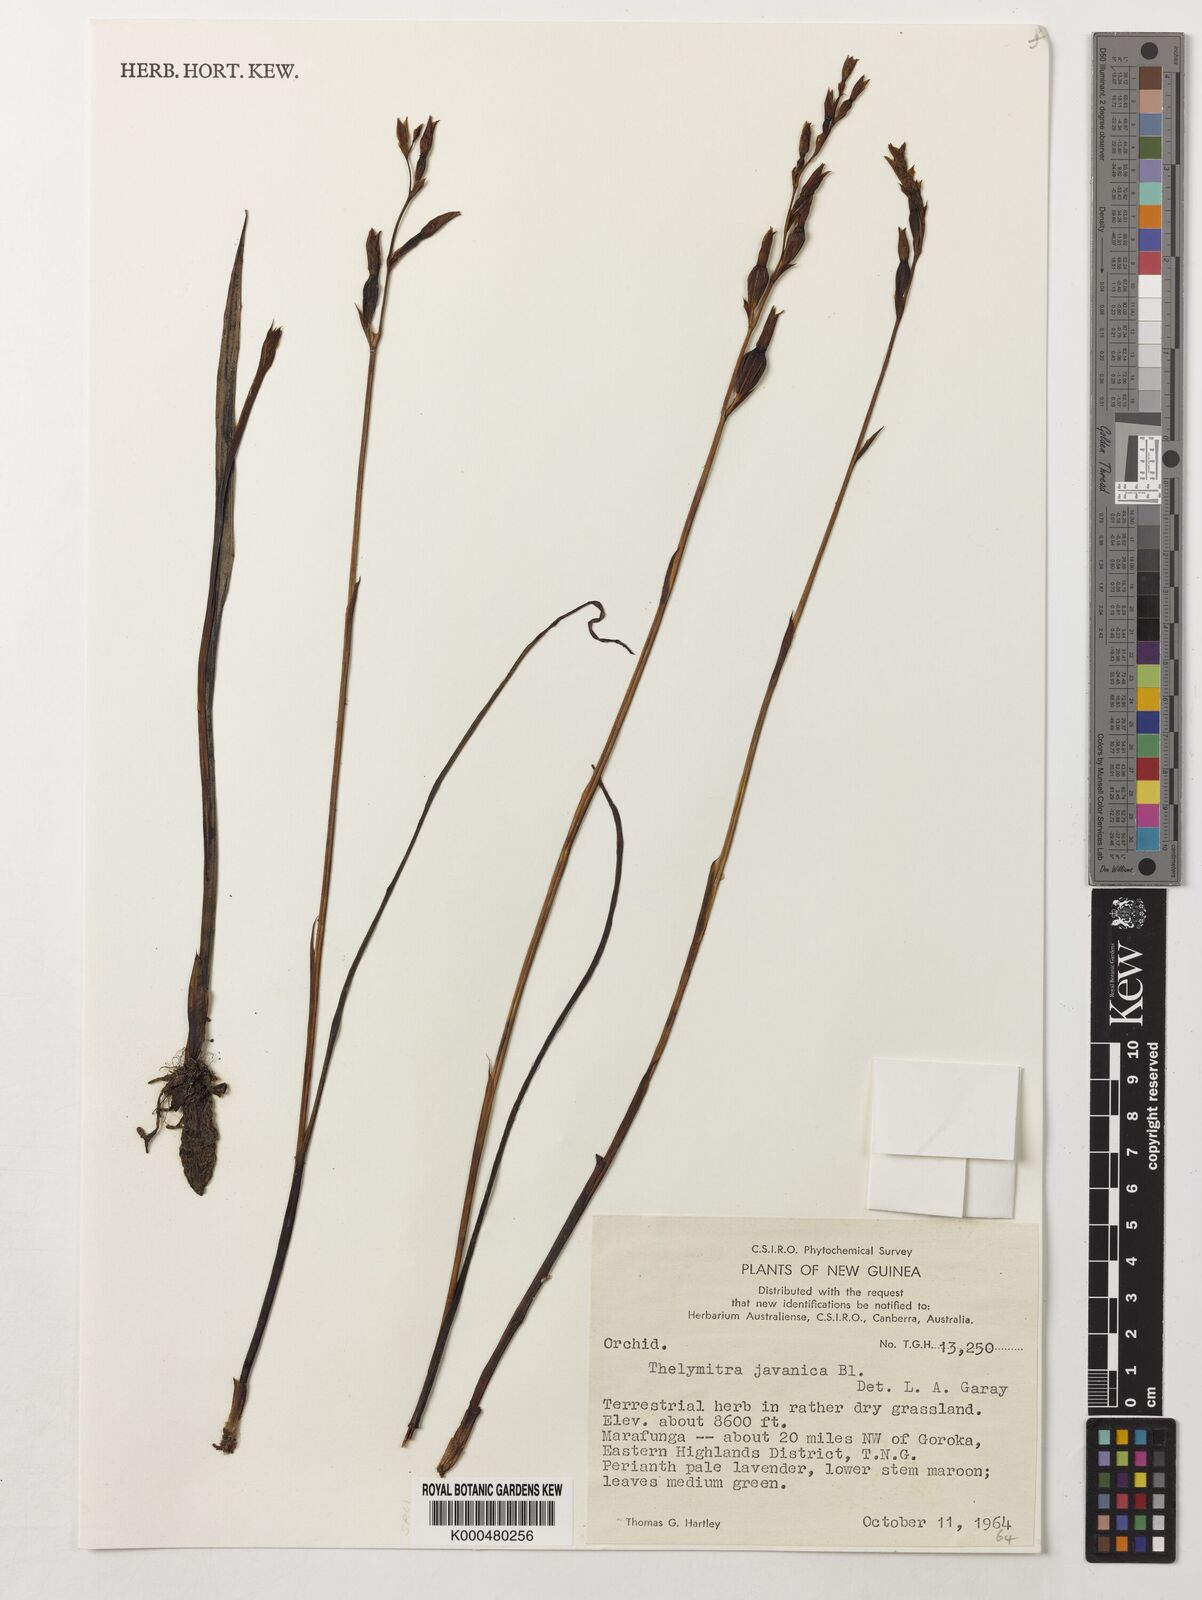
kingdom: Plantae
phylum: Tracheophyta
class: Liliopsida
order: Asparagales
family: Orchidaceae
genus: Thelymitra
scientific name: Thelymitra papuana
